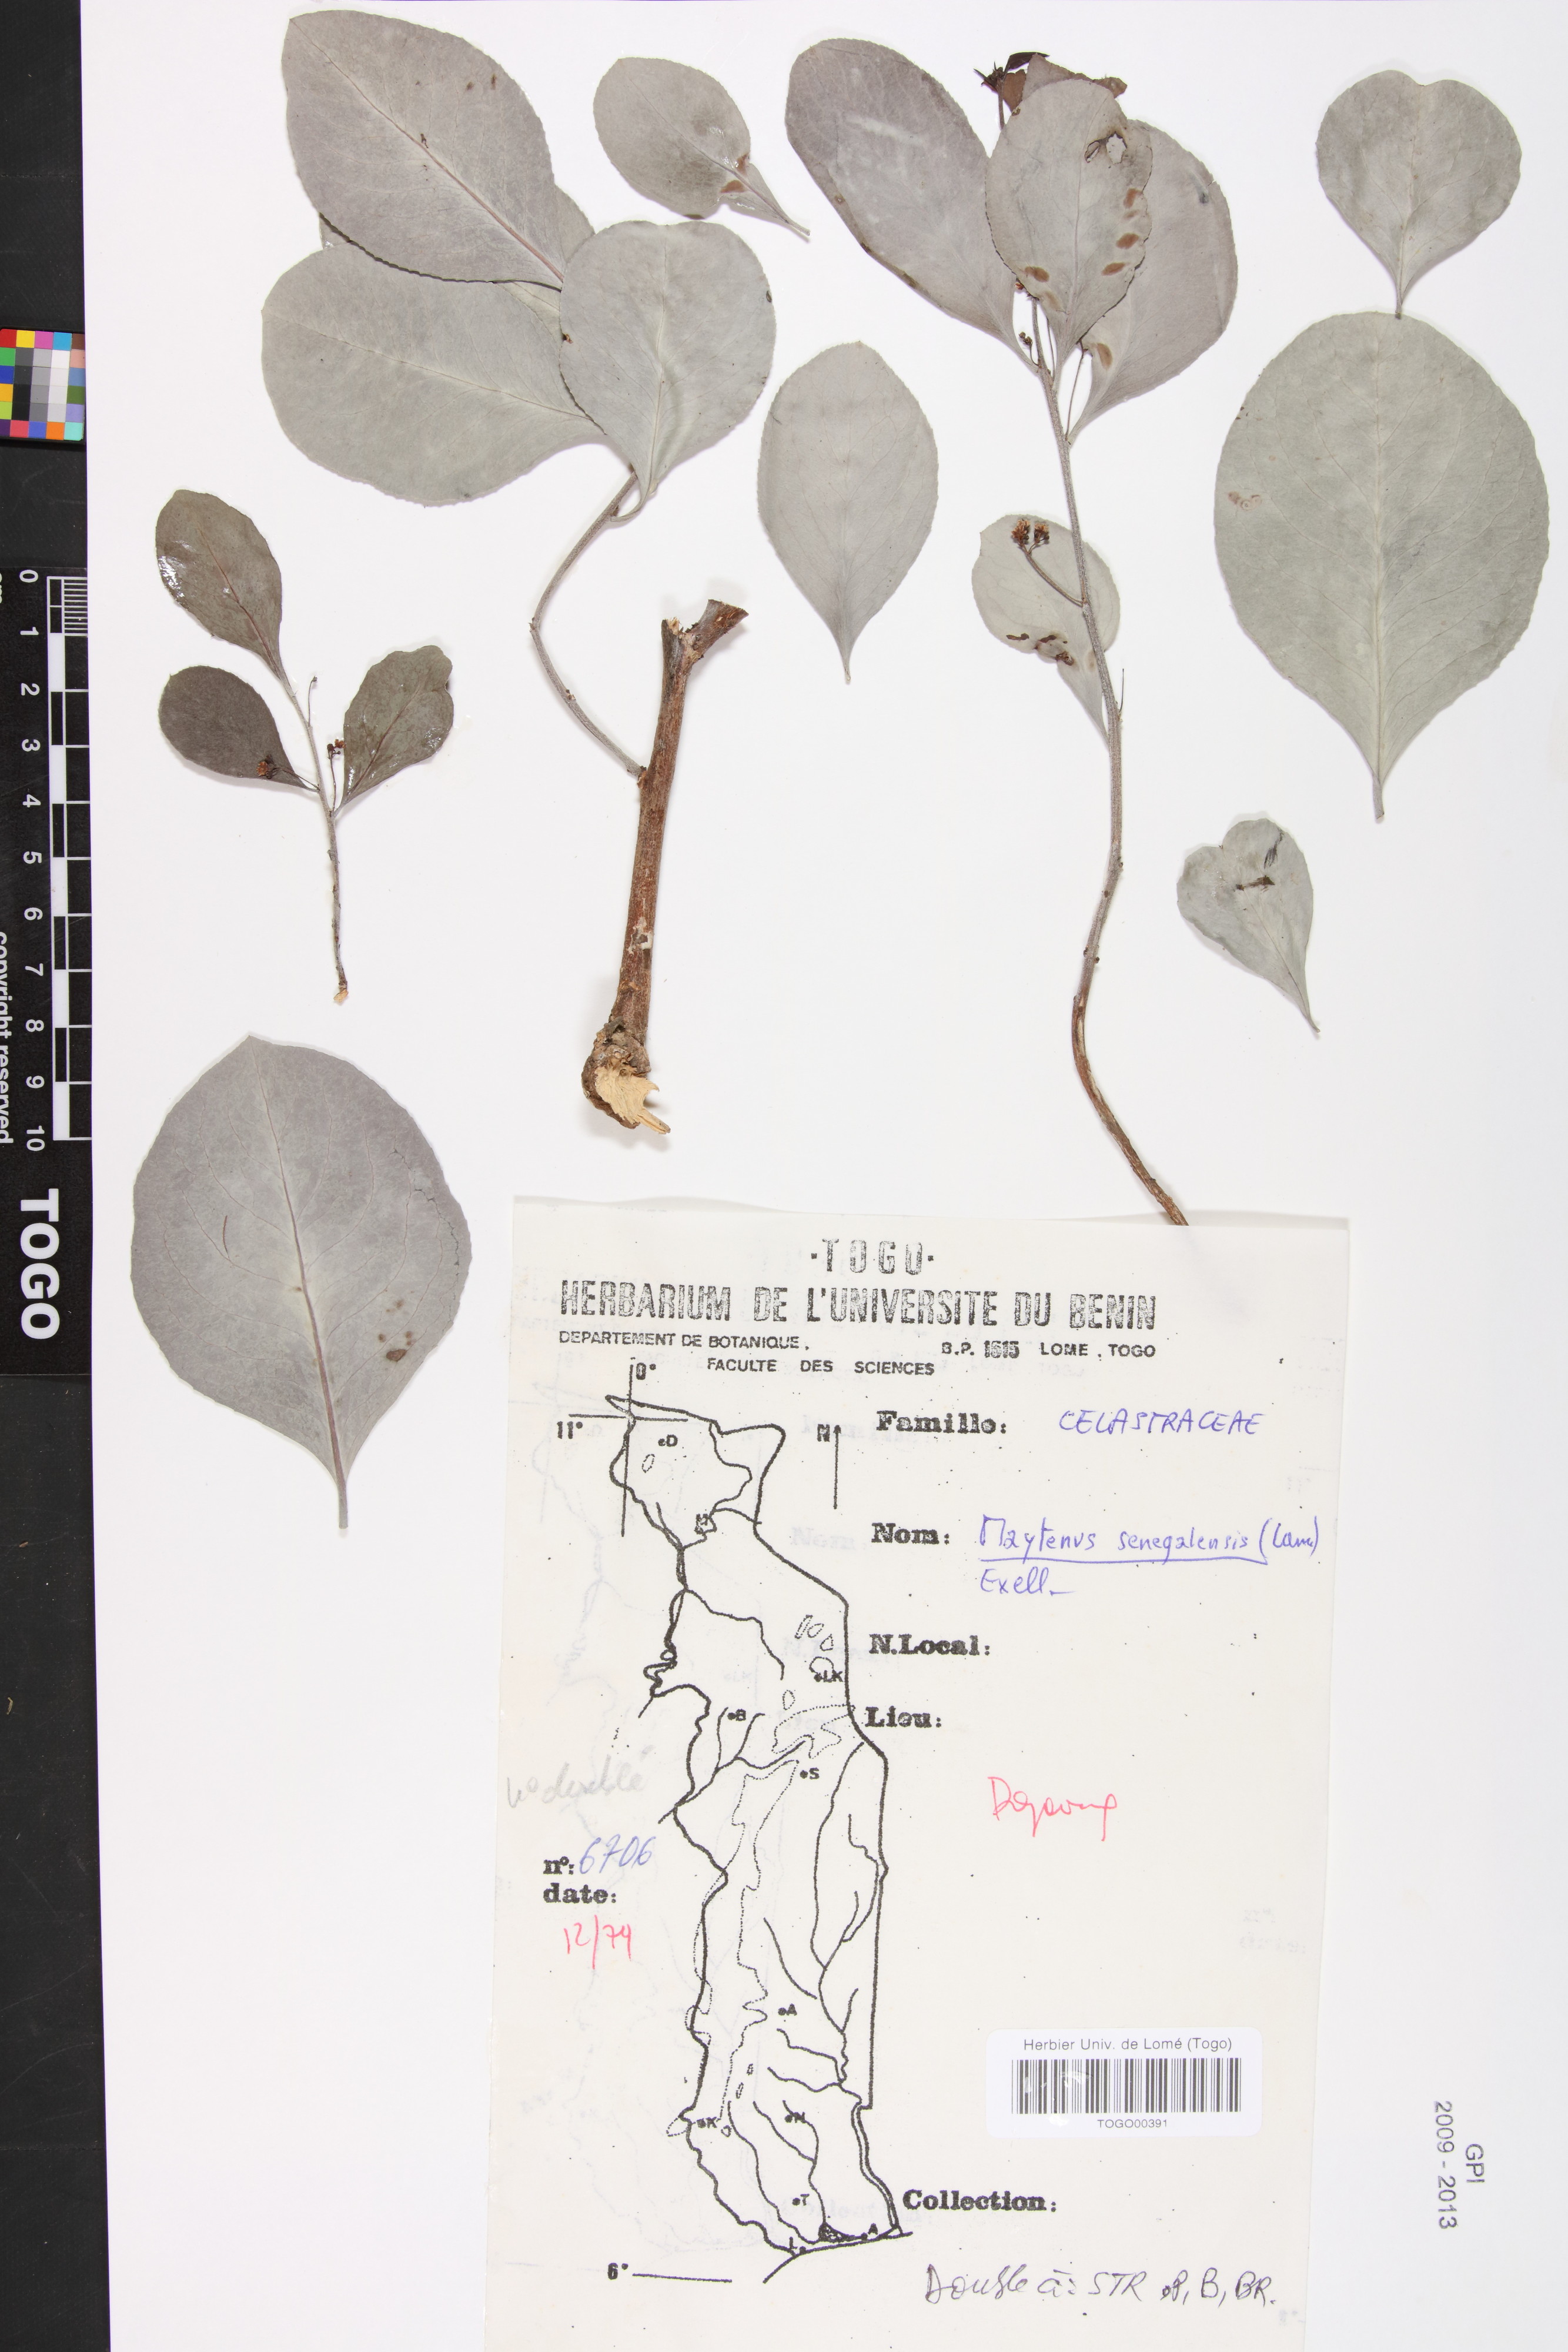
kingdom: Plantae
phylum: Tracheophyta
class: Magnoliopsida
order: Celastrales
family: Celastraceae
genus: Gymnosporia
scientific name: Gymnosporia senegalensis
